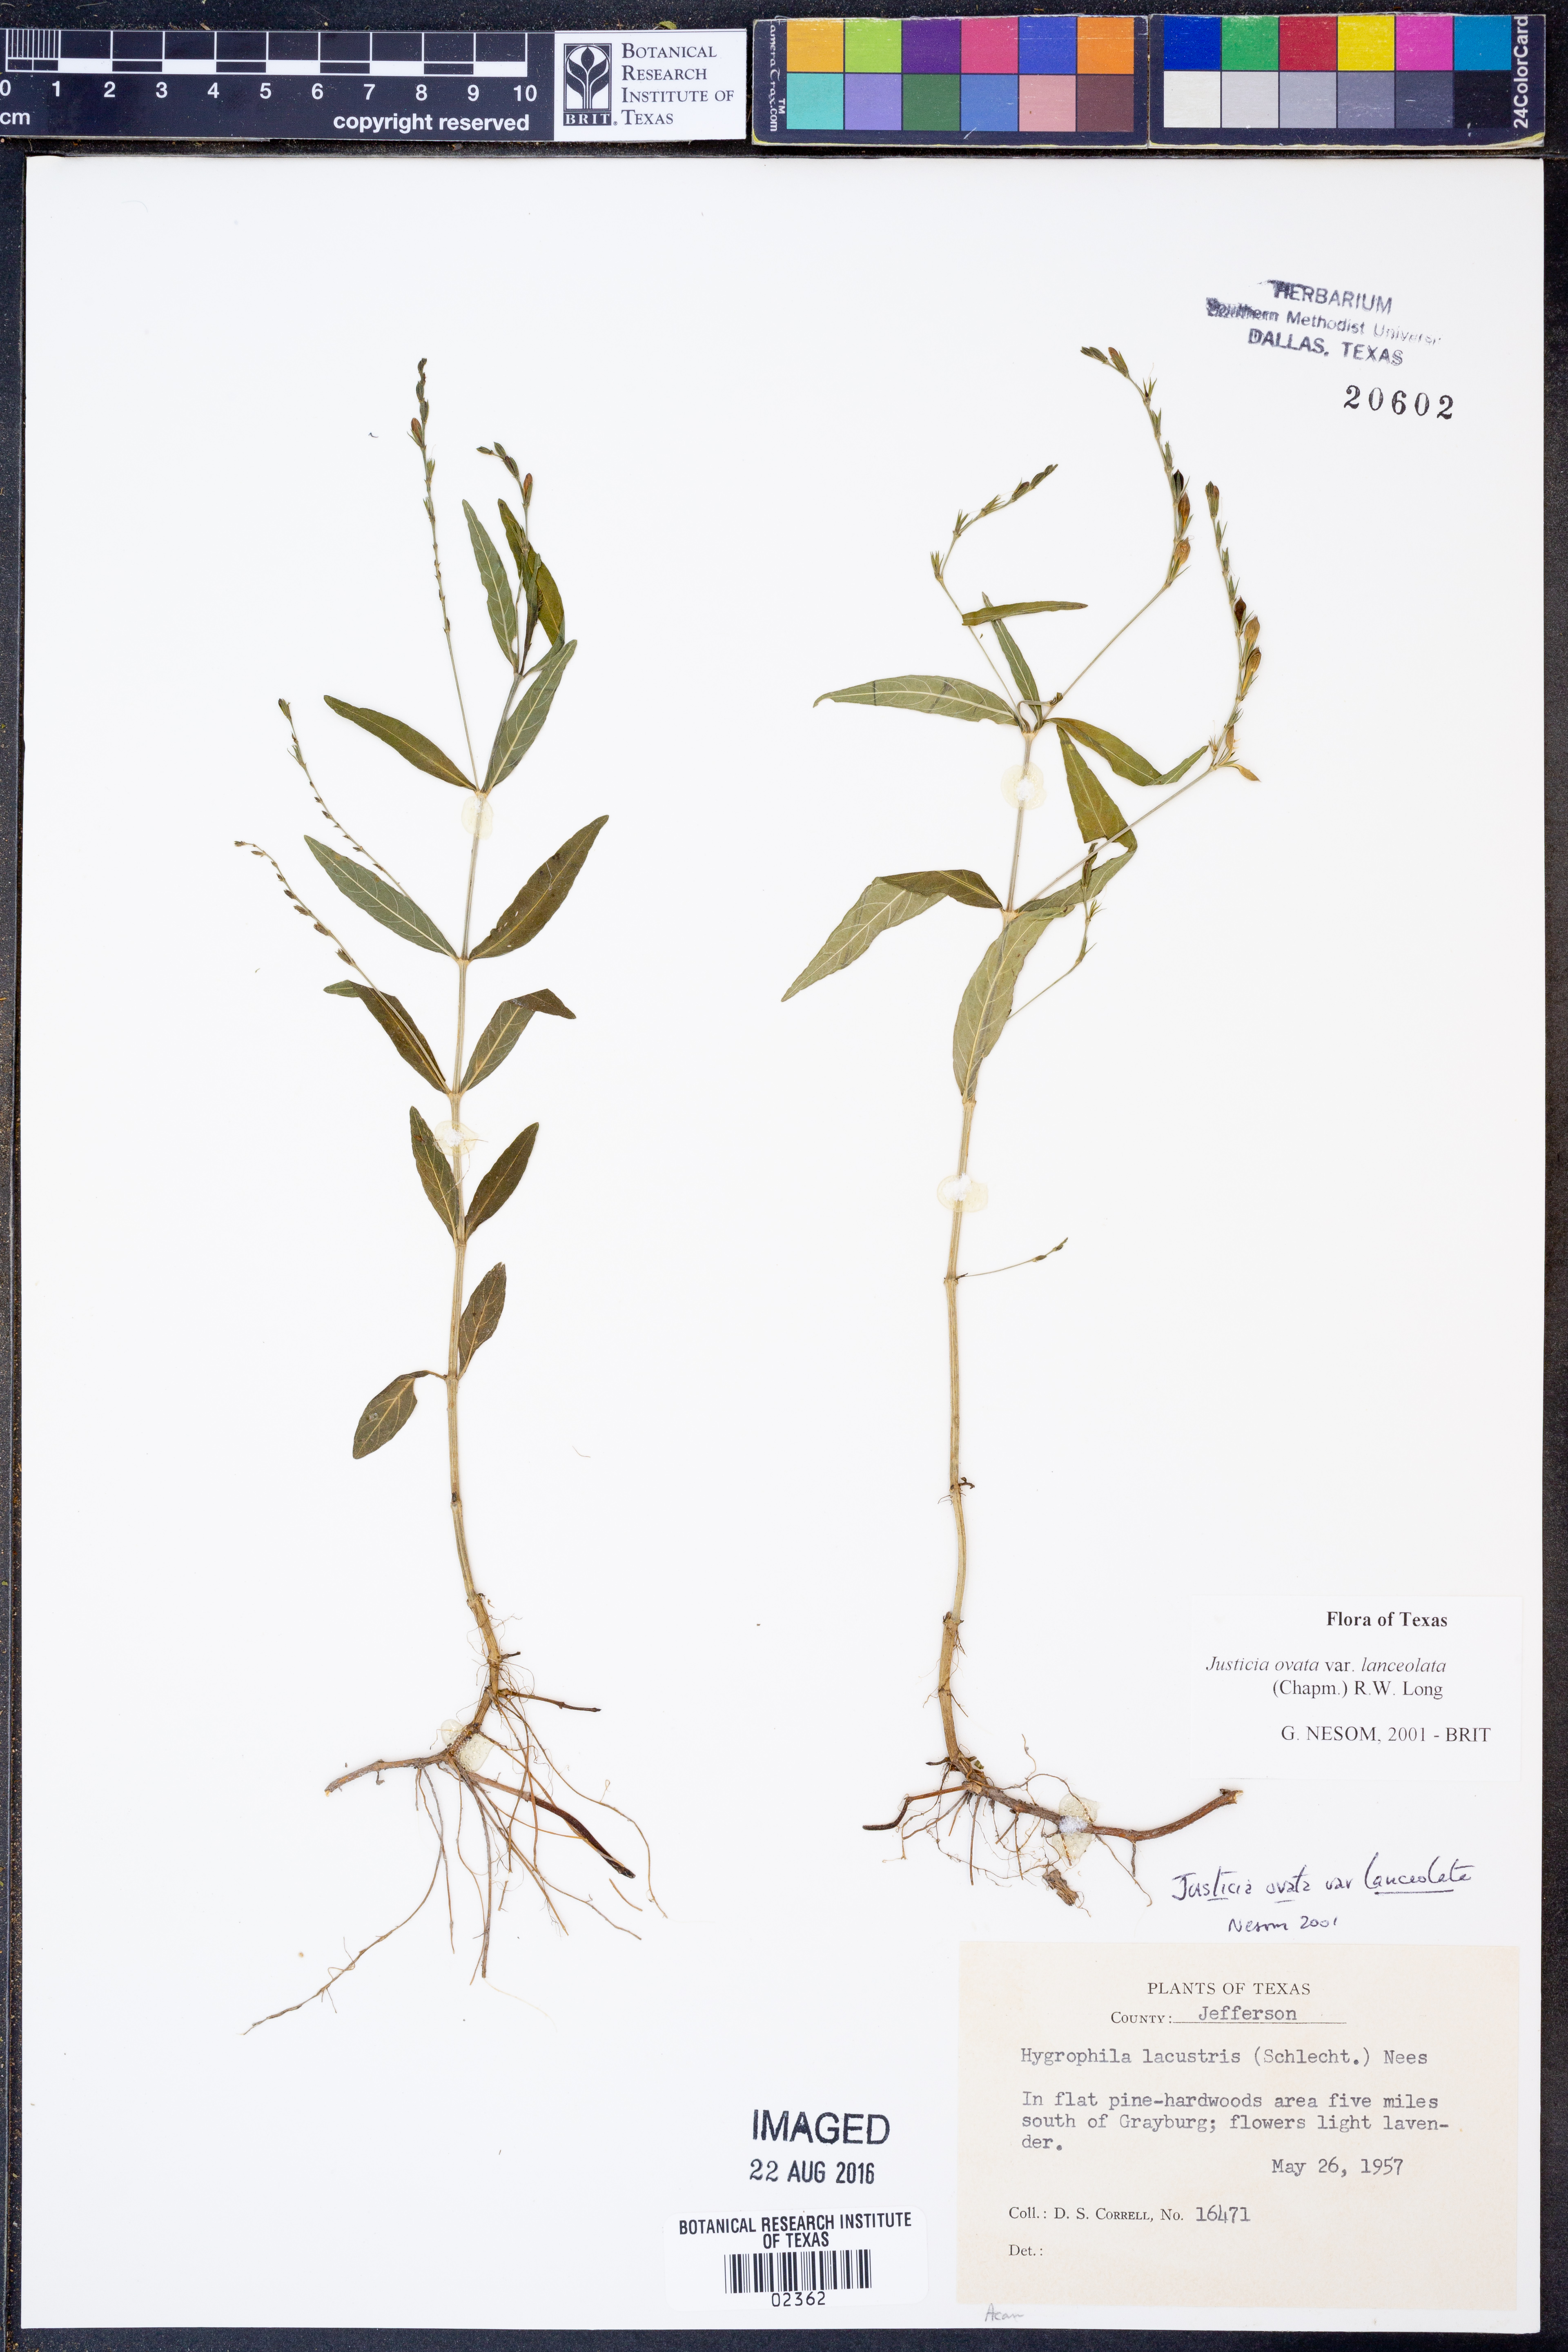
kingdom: Plantae
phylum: Tracheophyta
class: Magnoliopsida
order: Lamiales
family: Acanthaceae
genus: Justicia
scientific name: Justicia lanceolata
